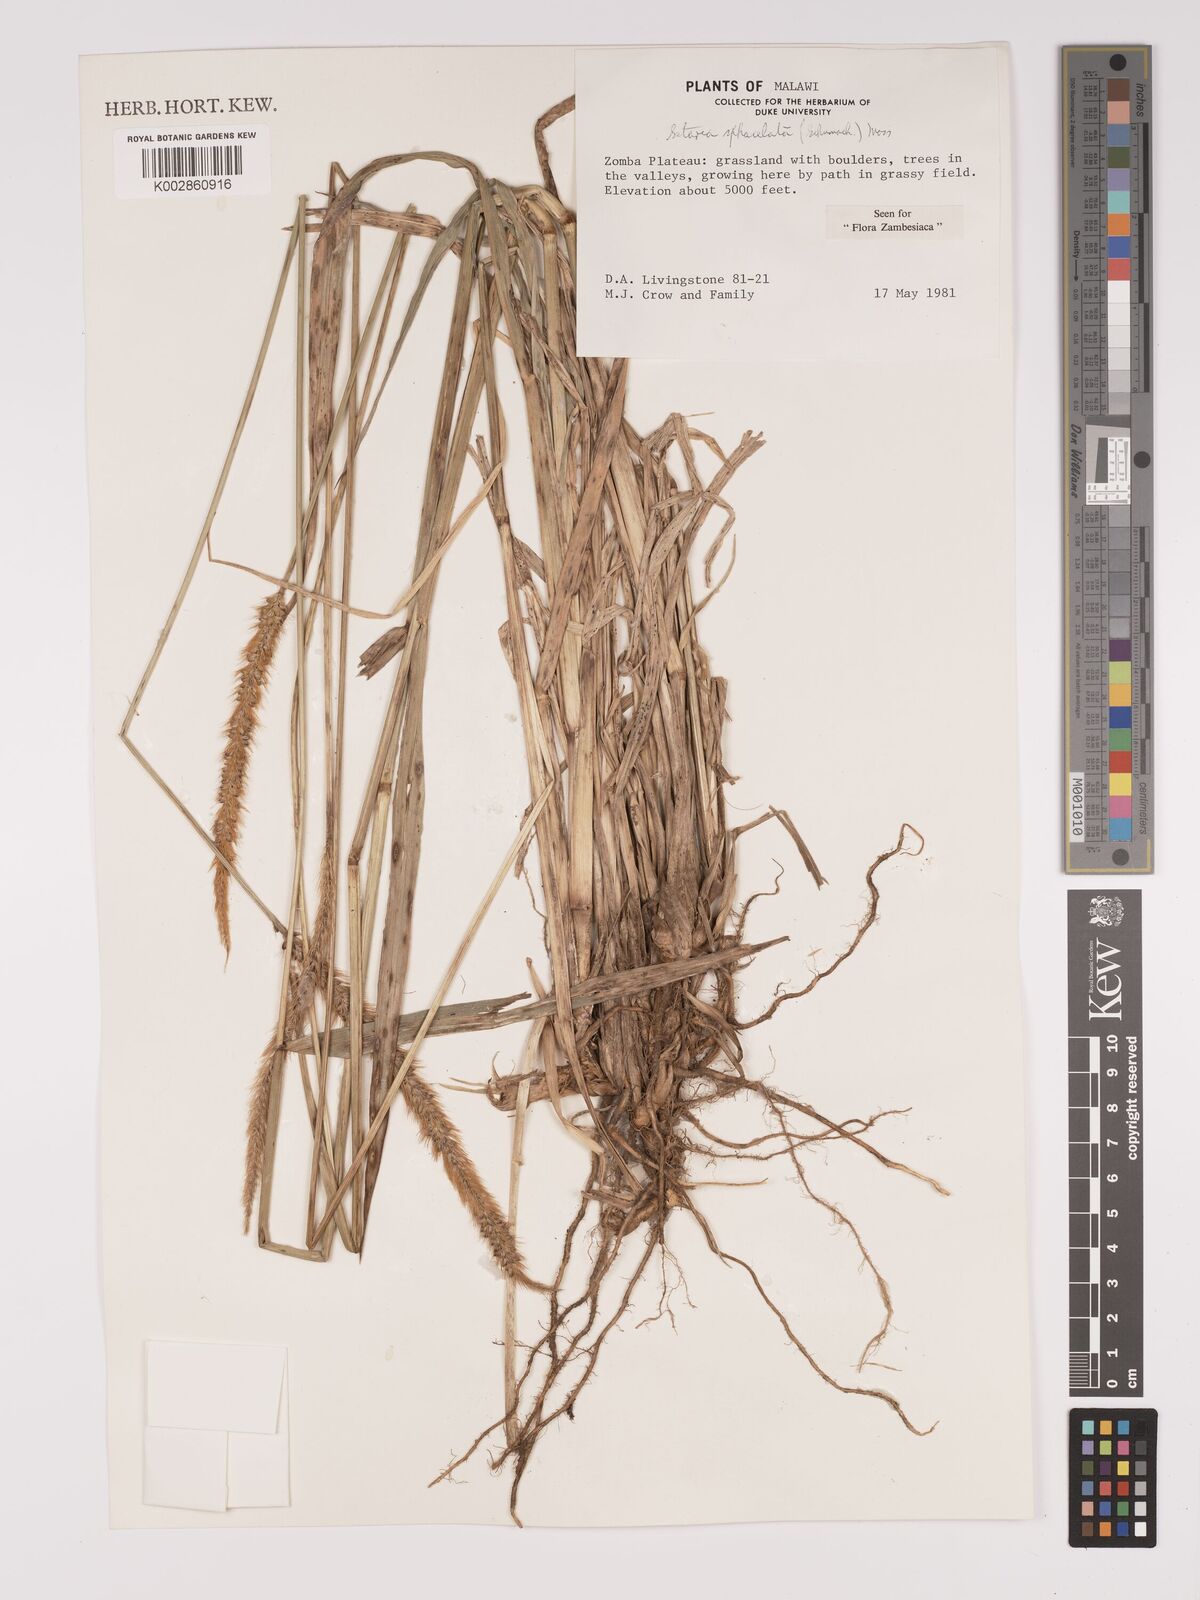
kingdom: Plantae
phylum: Tracheophyta
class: Liliopsida
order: Poales
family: Poaceae
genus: Setaria
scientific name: Setaria sphacelata
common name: African bristlegrass
